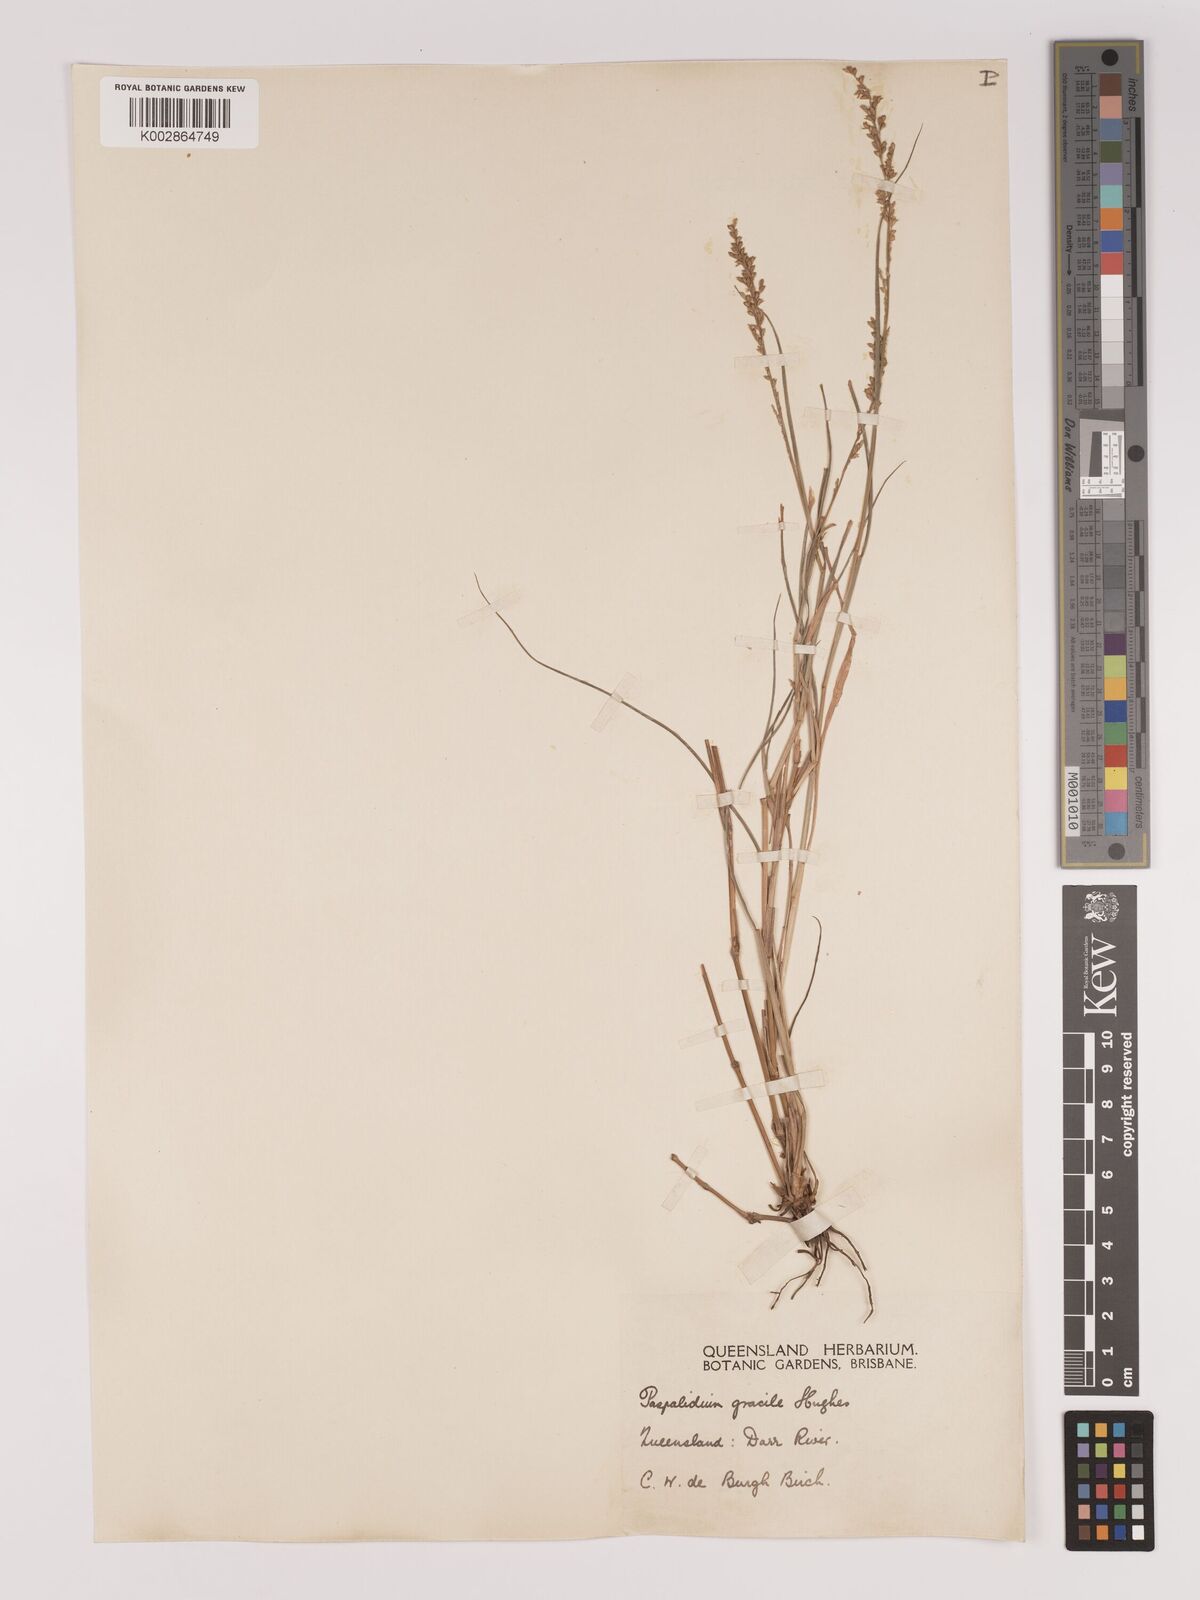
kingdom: Plantae
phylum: Tracheophyta
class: Liliopsida
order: Poales
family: Poaceae
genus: Setaria
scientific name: Setaria brownii
